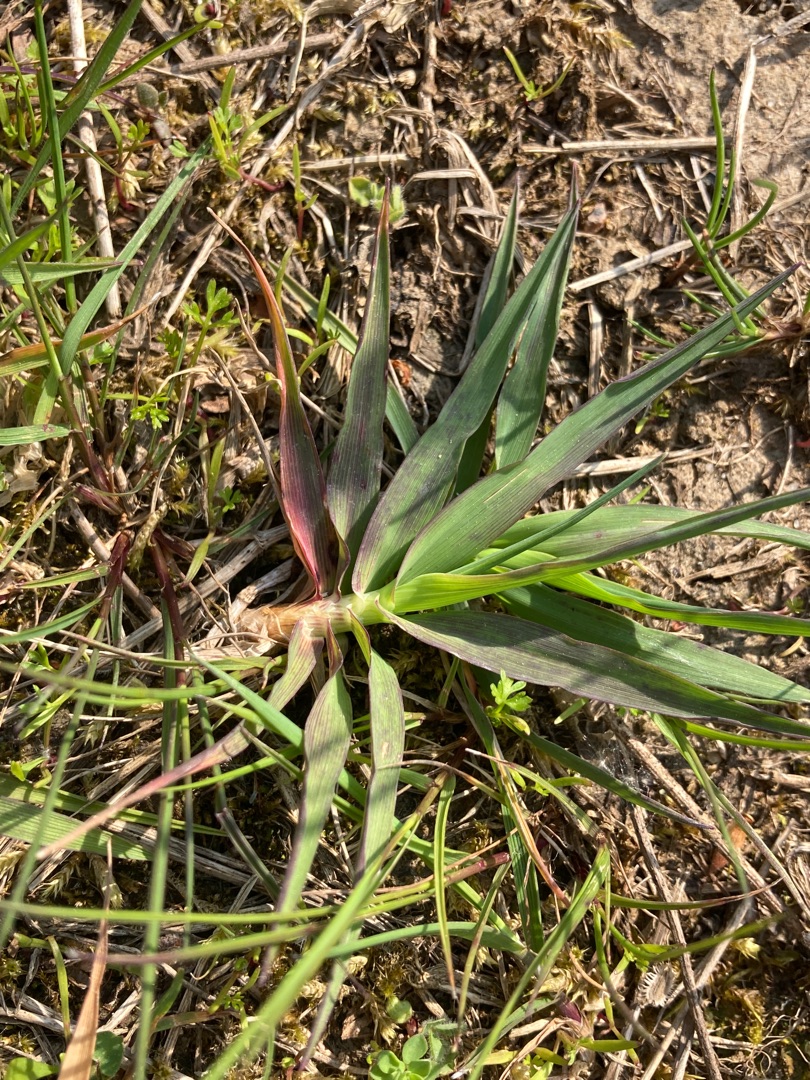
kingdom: Plantae
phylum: Tracheophyta
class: Liliopsida
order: Poales
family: Poaceae
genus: Phleum
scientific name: Phleum pratense
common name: Eng-rottehale
